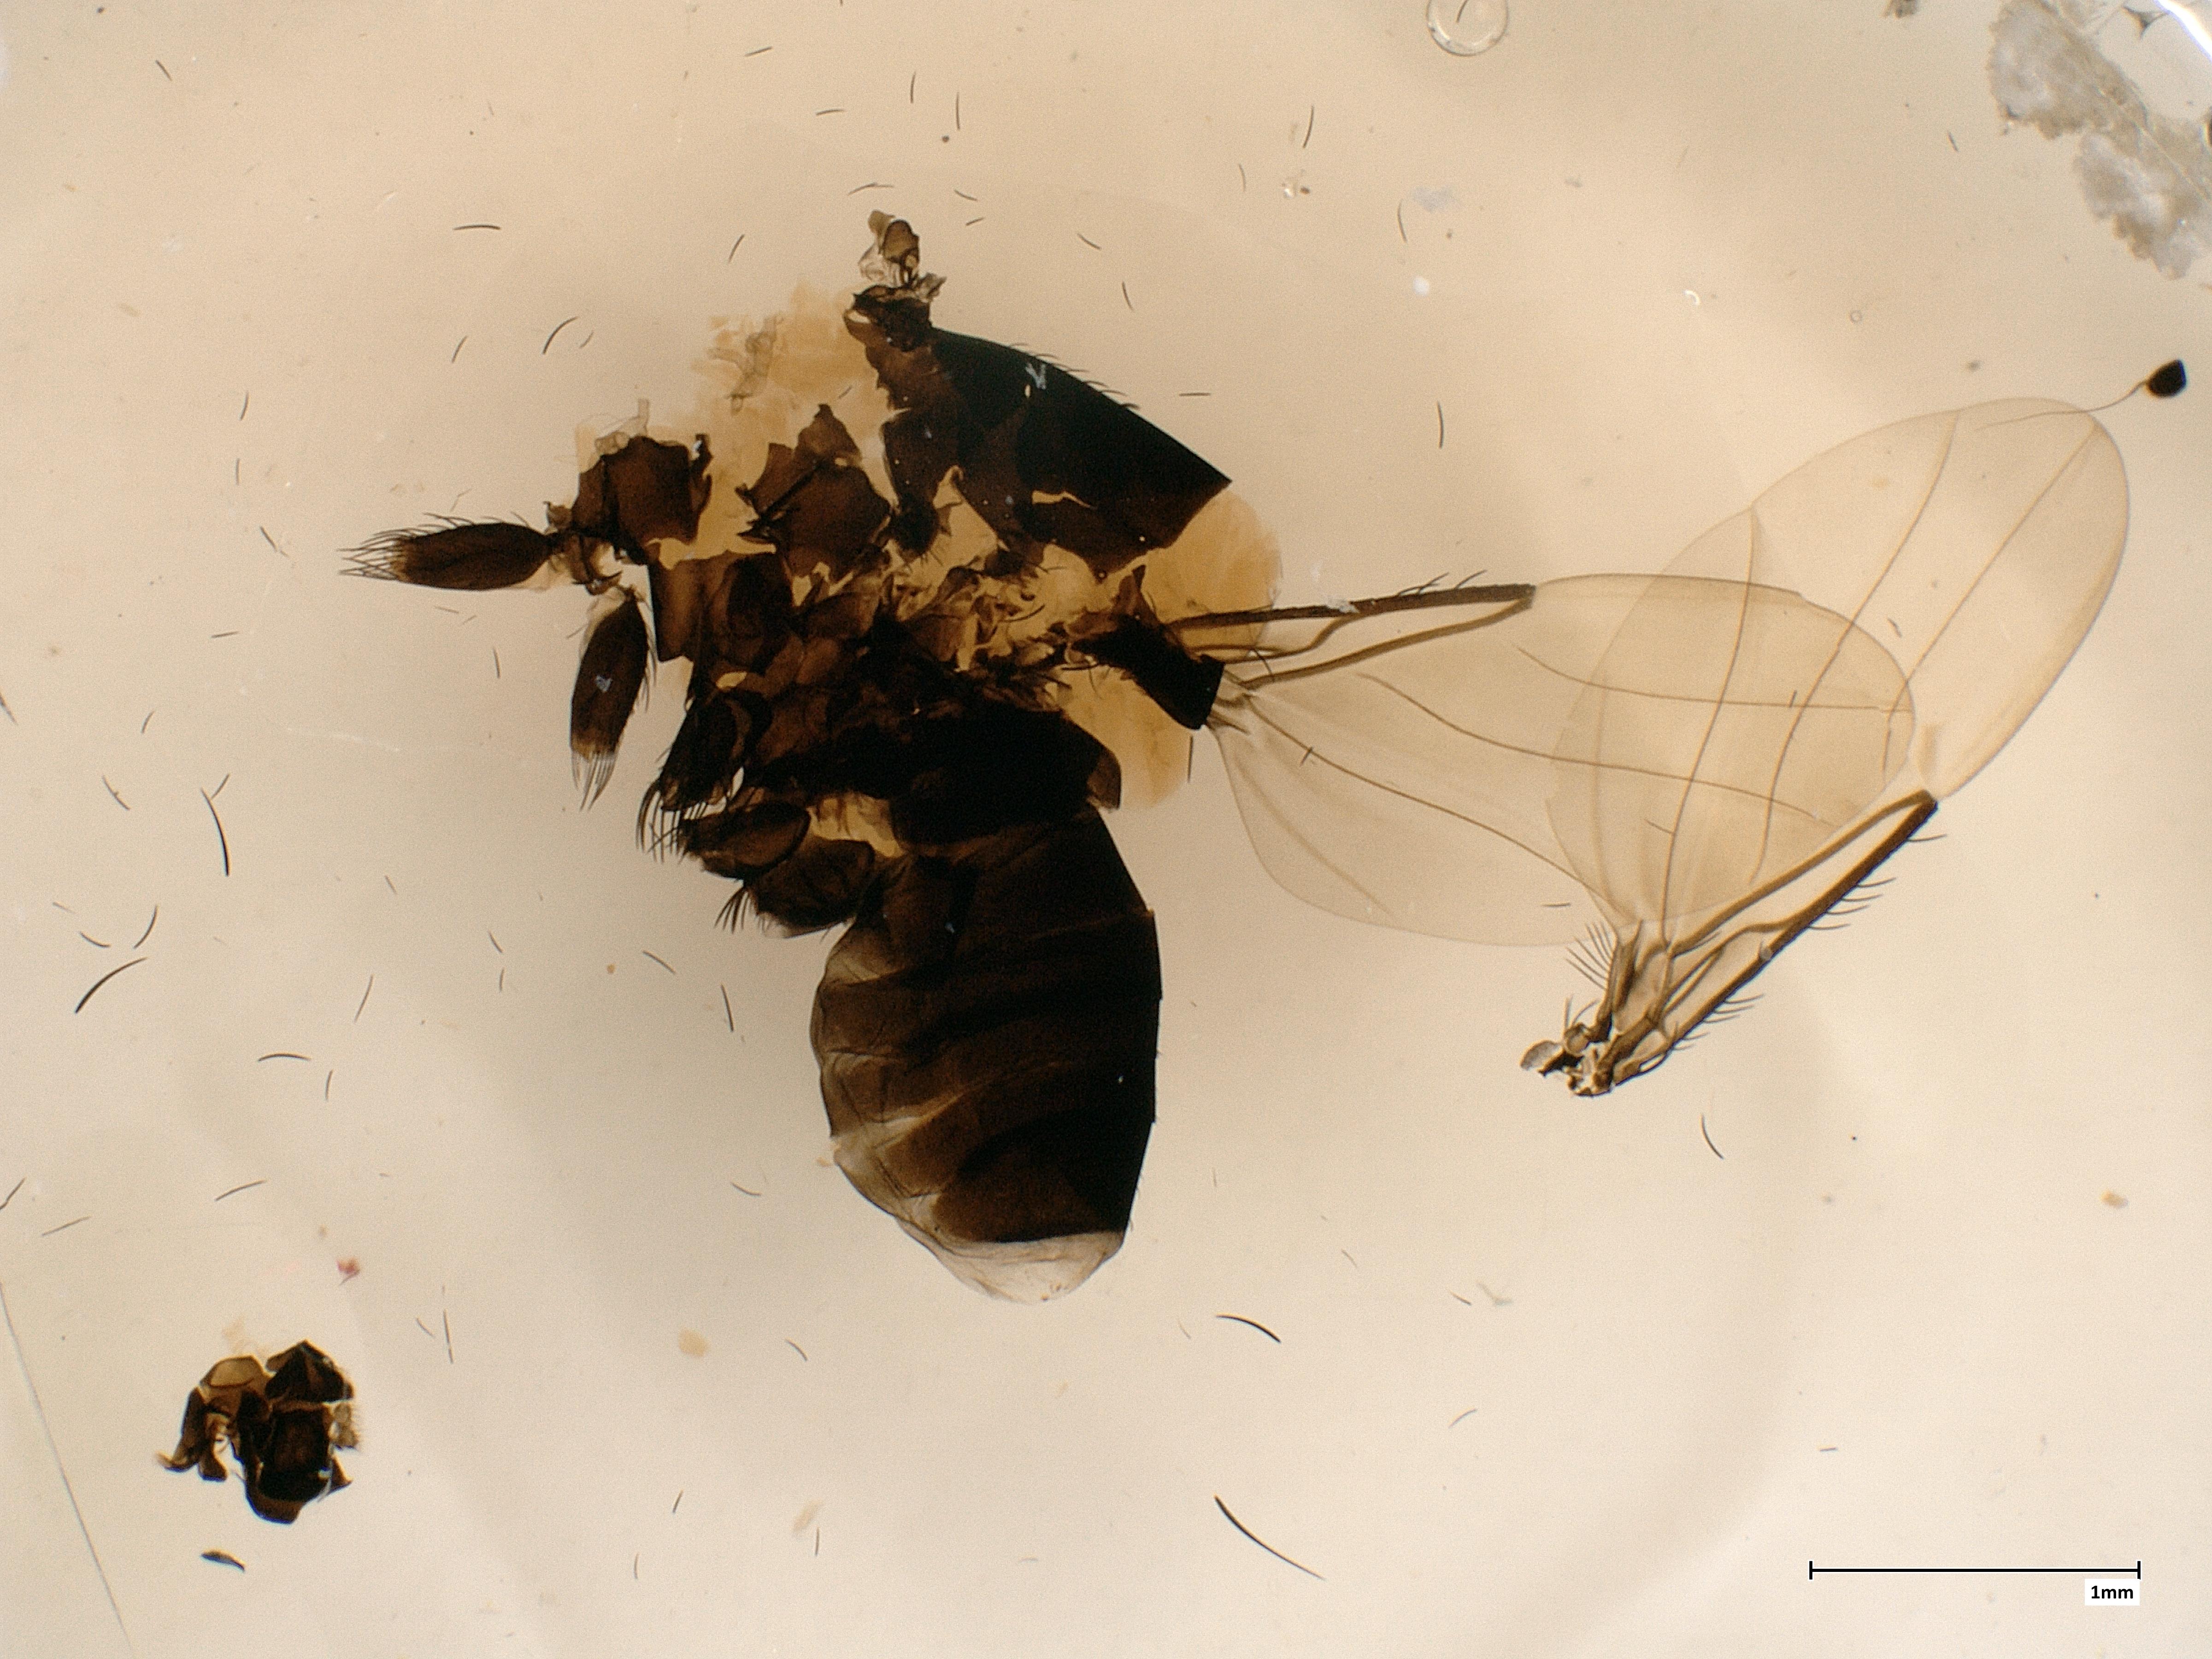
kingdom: Animalia
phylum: Arthropoda
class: Insecta
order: Diptera
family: Phoridae
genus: Phora
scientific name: Phora tincta
